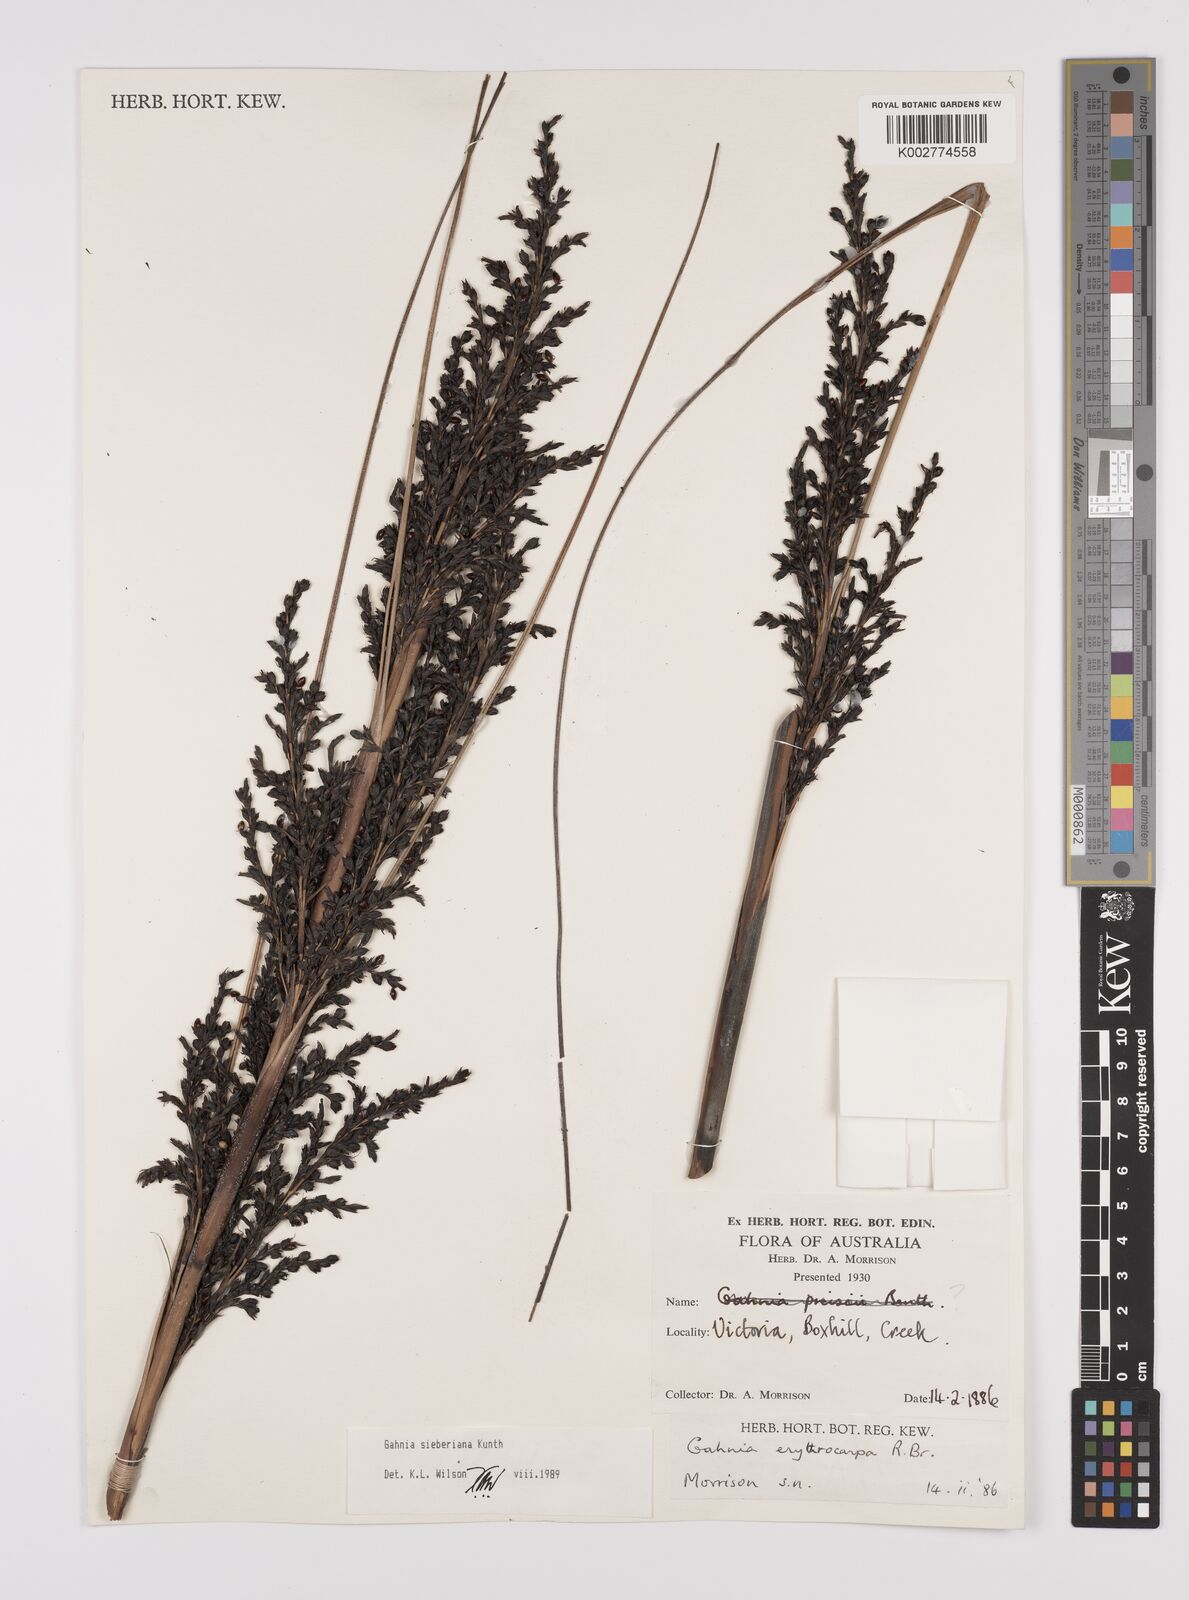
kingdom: Plantae
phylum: Tracheophyta
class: Liliopsida
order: Poales
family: Cyperaceae
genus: Gahnia
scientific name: Gahnia sieberiana
